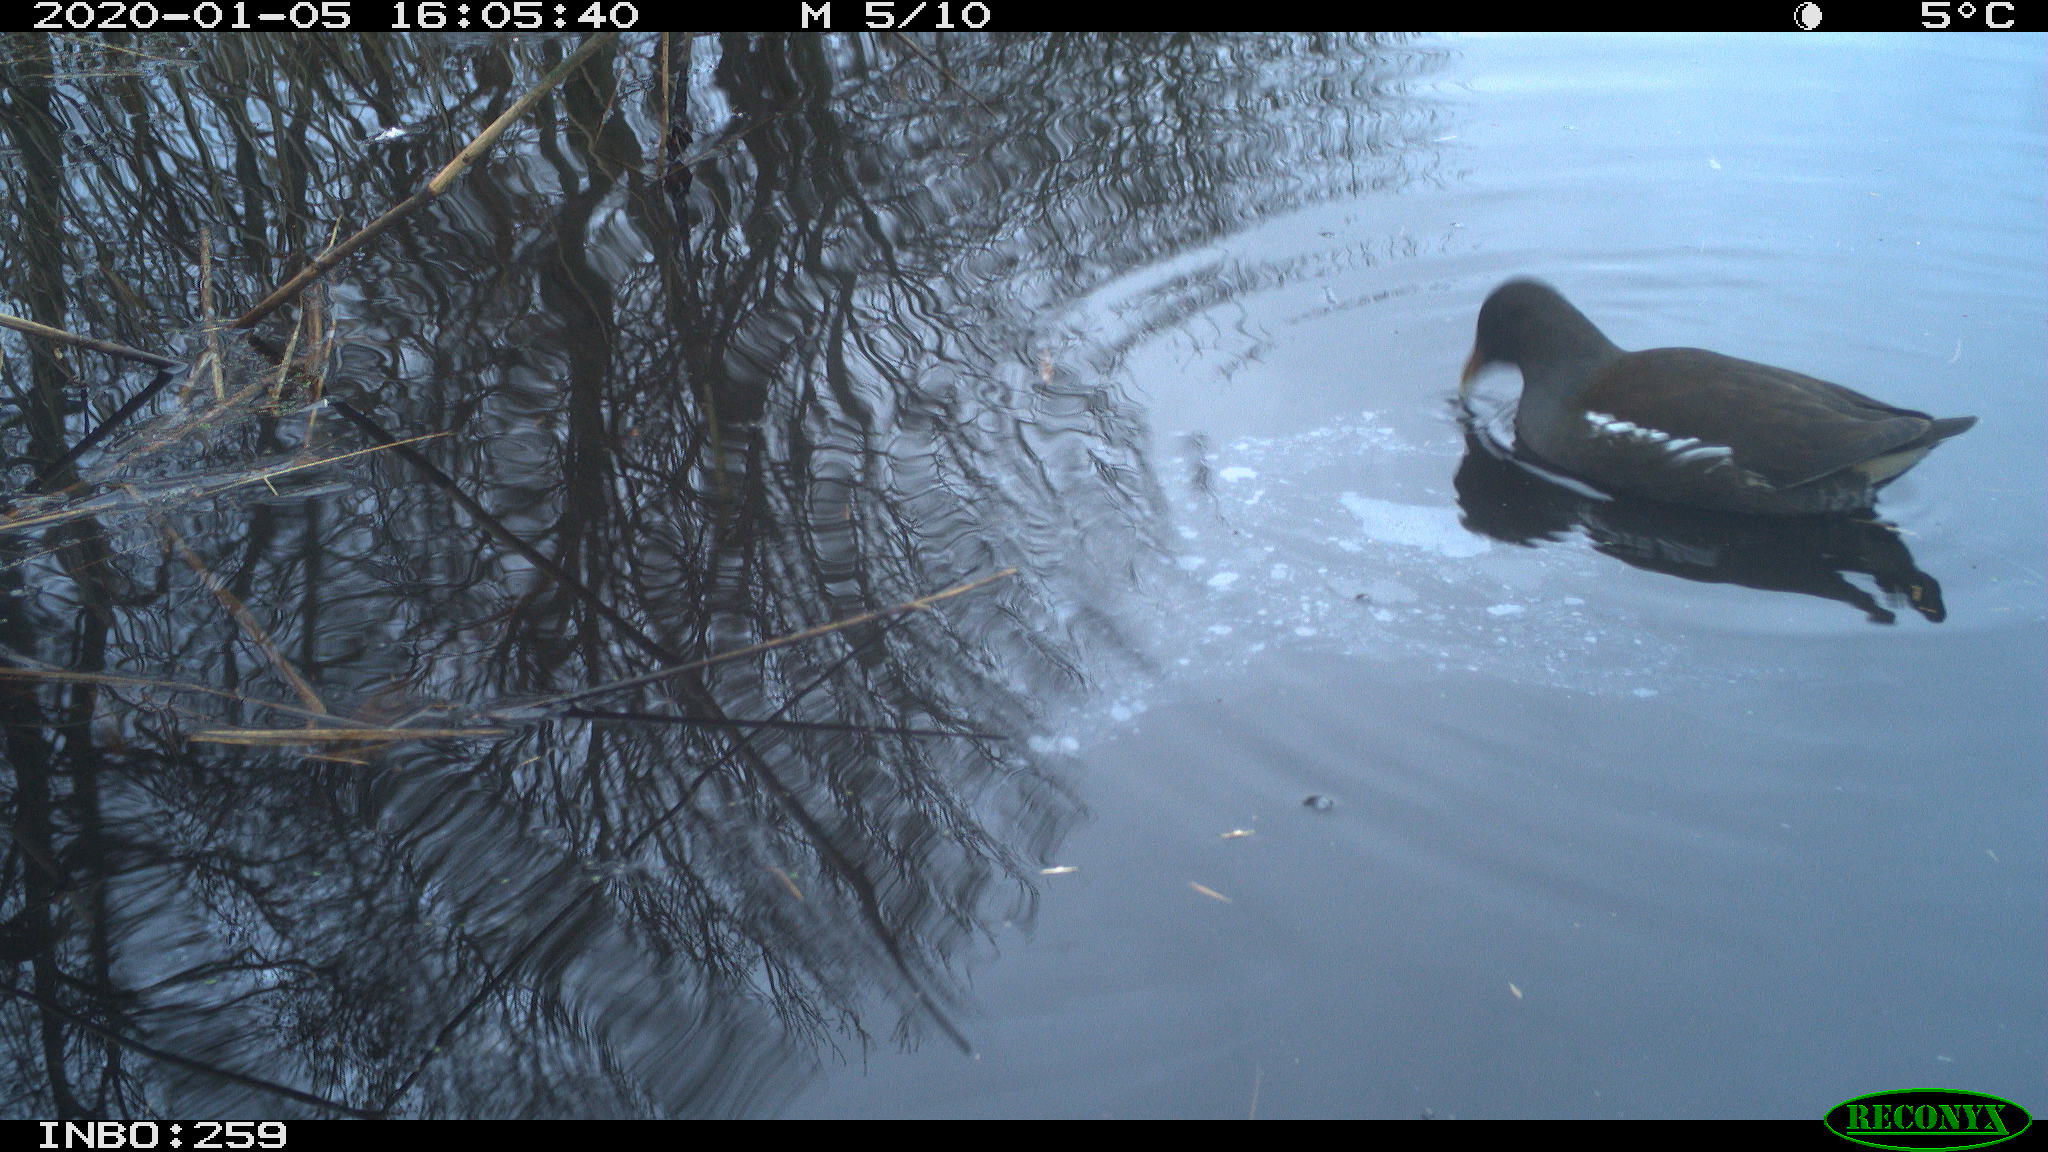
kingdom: Animalia
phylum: Chordata
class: Aves
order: Gruiformes
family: Rallidae
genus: Gallinula
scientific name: Gallinula chloropus
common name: Common moorhen
